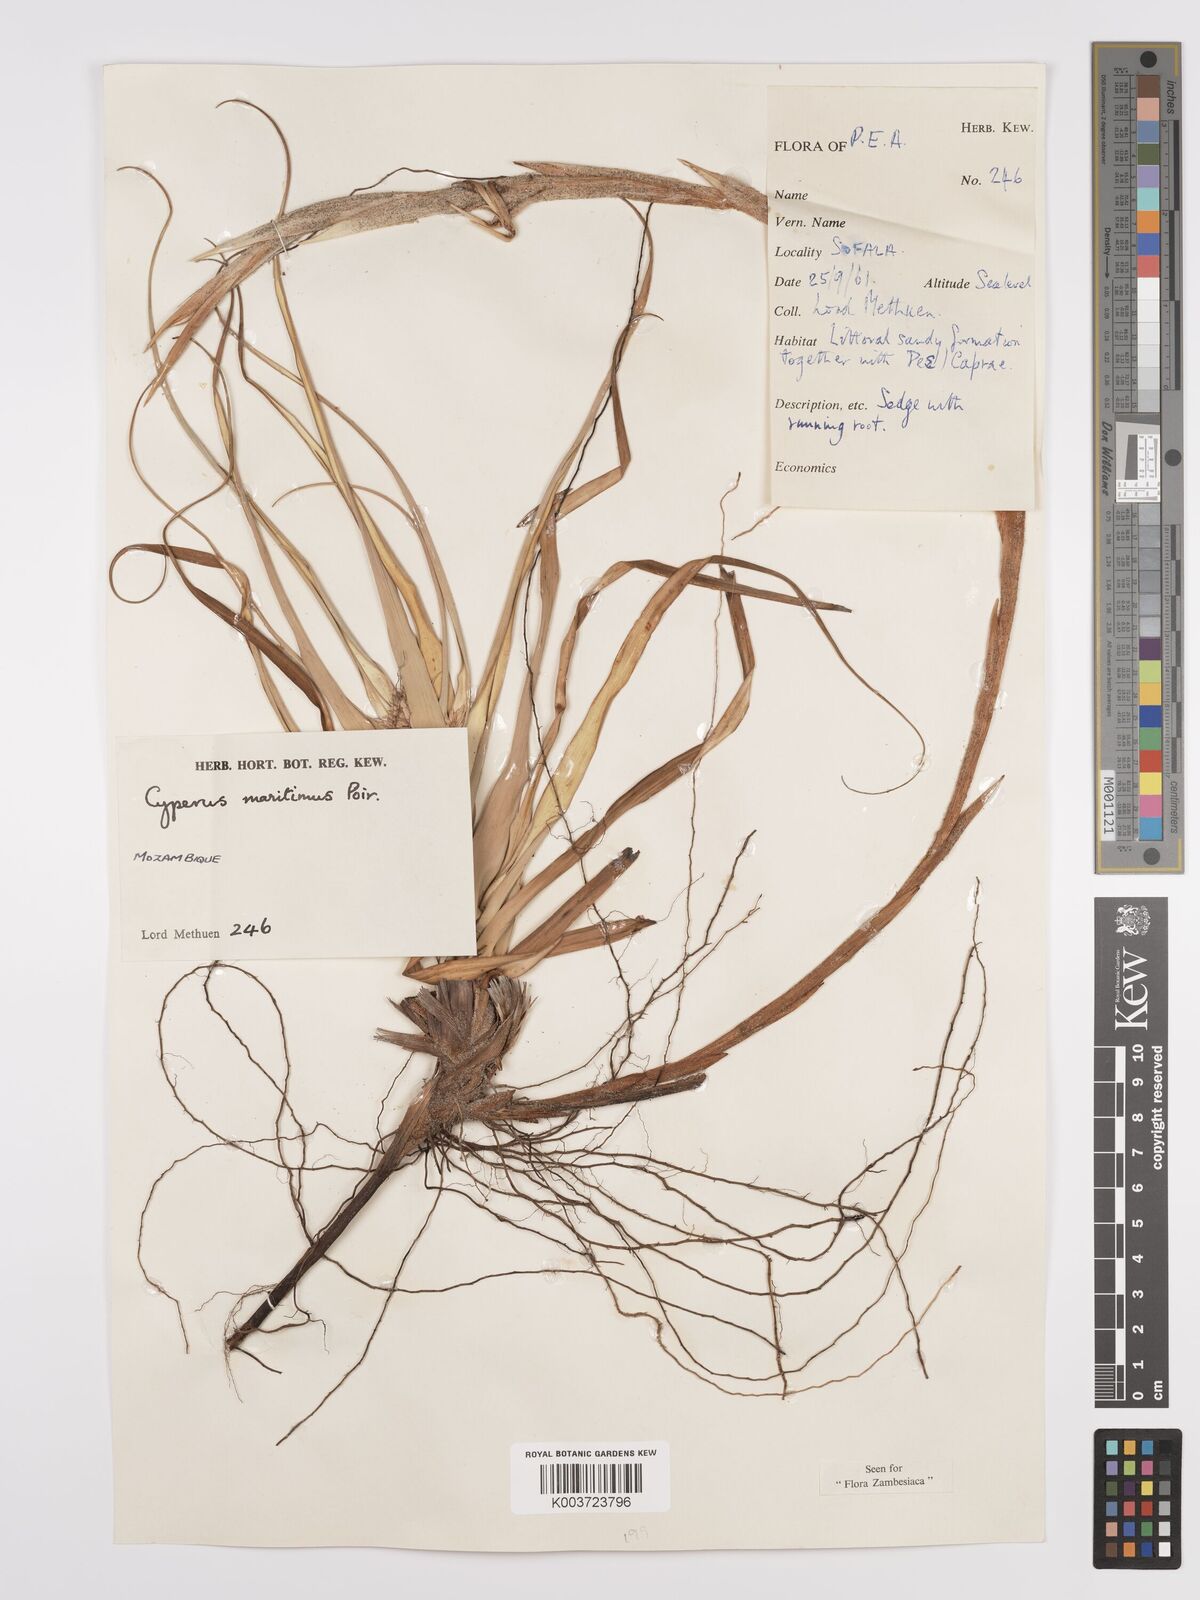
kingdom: Plantae
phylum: Tracheophyta
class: Liliopsida
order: Poales
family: Cyperaceae
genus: Cyperus
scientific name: Cyperus crassipes
